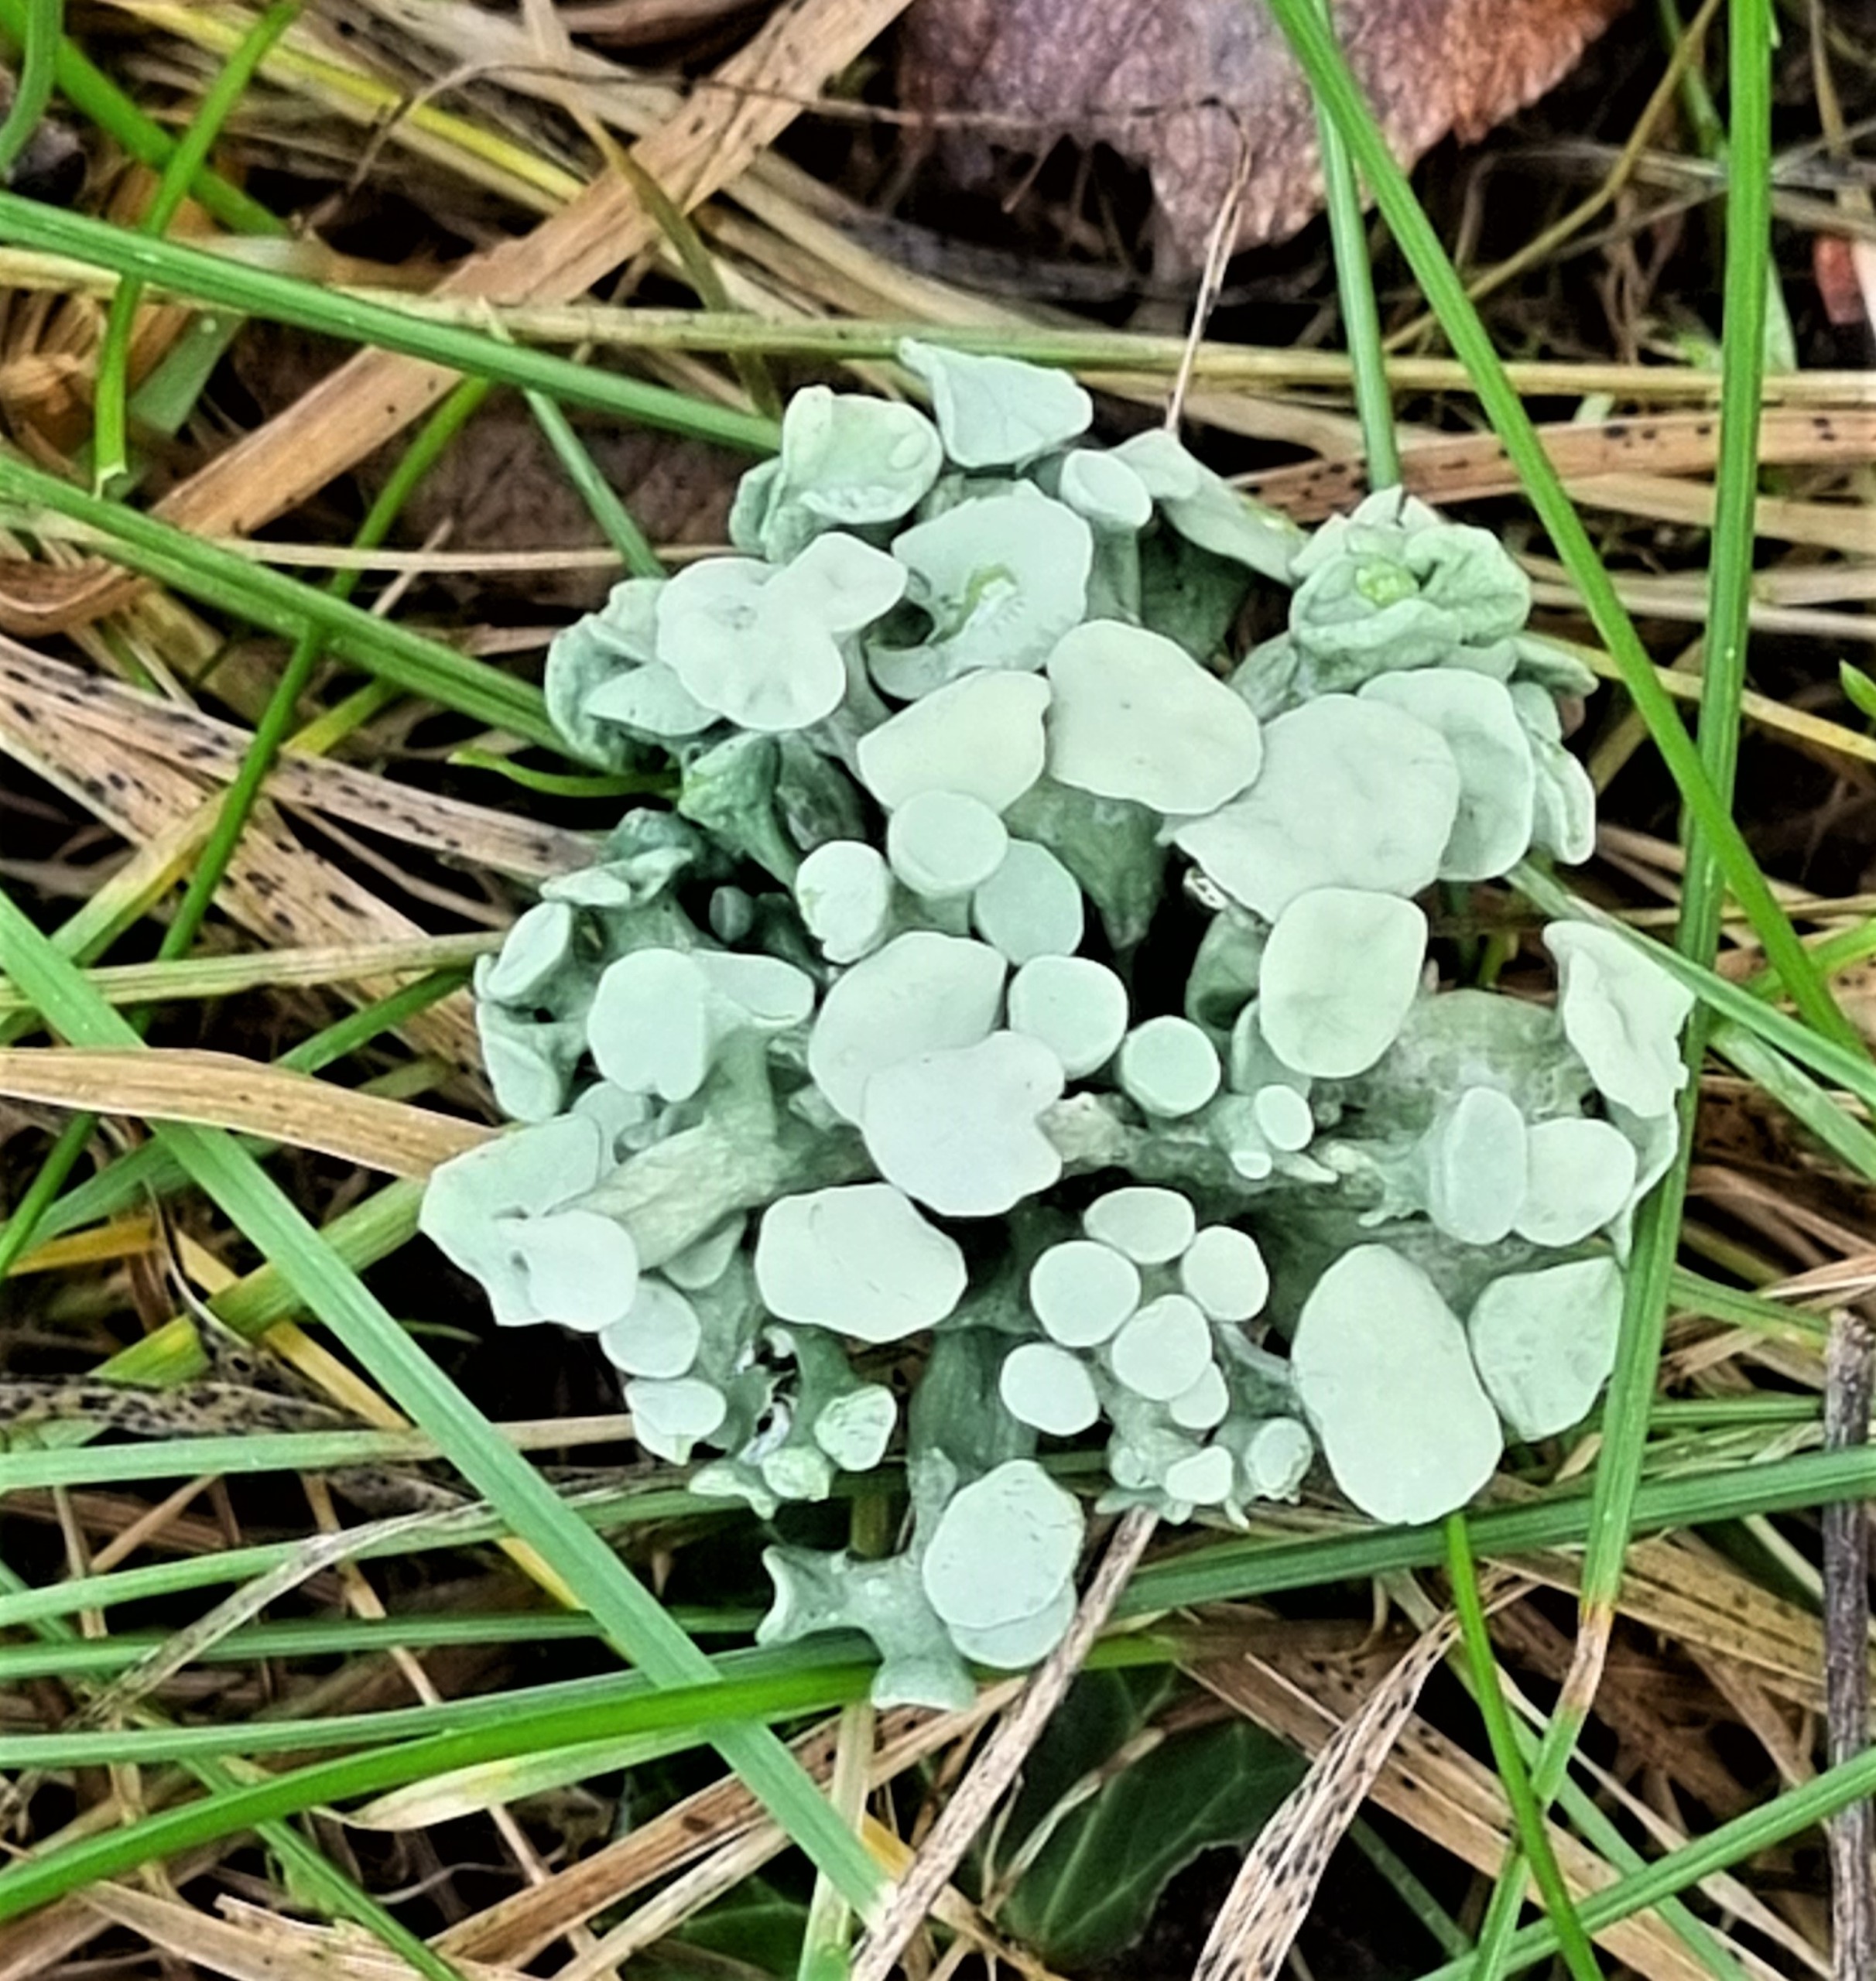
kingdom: Fungi
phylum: Ascomycota
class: Lecanoromycetes
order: Lecanorales
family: Ramalinaceae
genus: Ramalina
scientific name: Ramalina fastigiata
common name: Tue-grenlav
